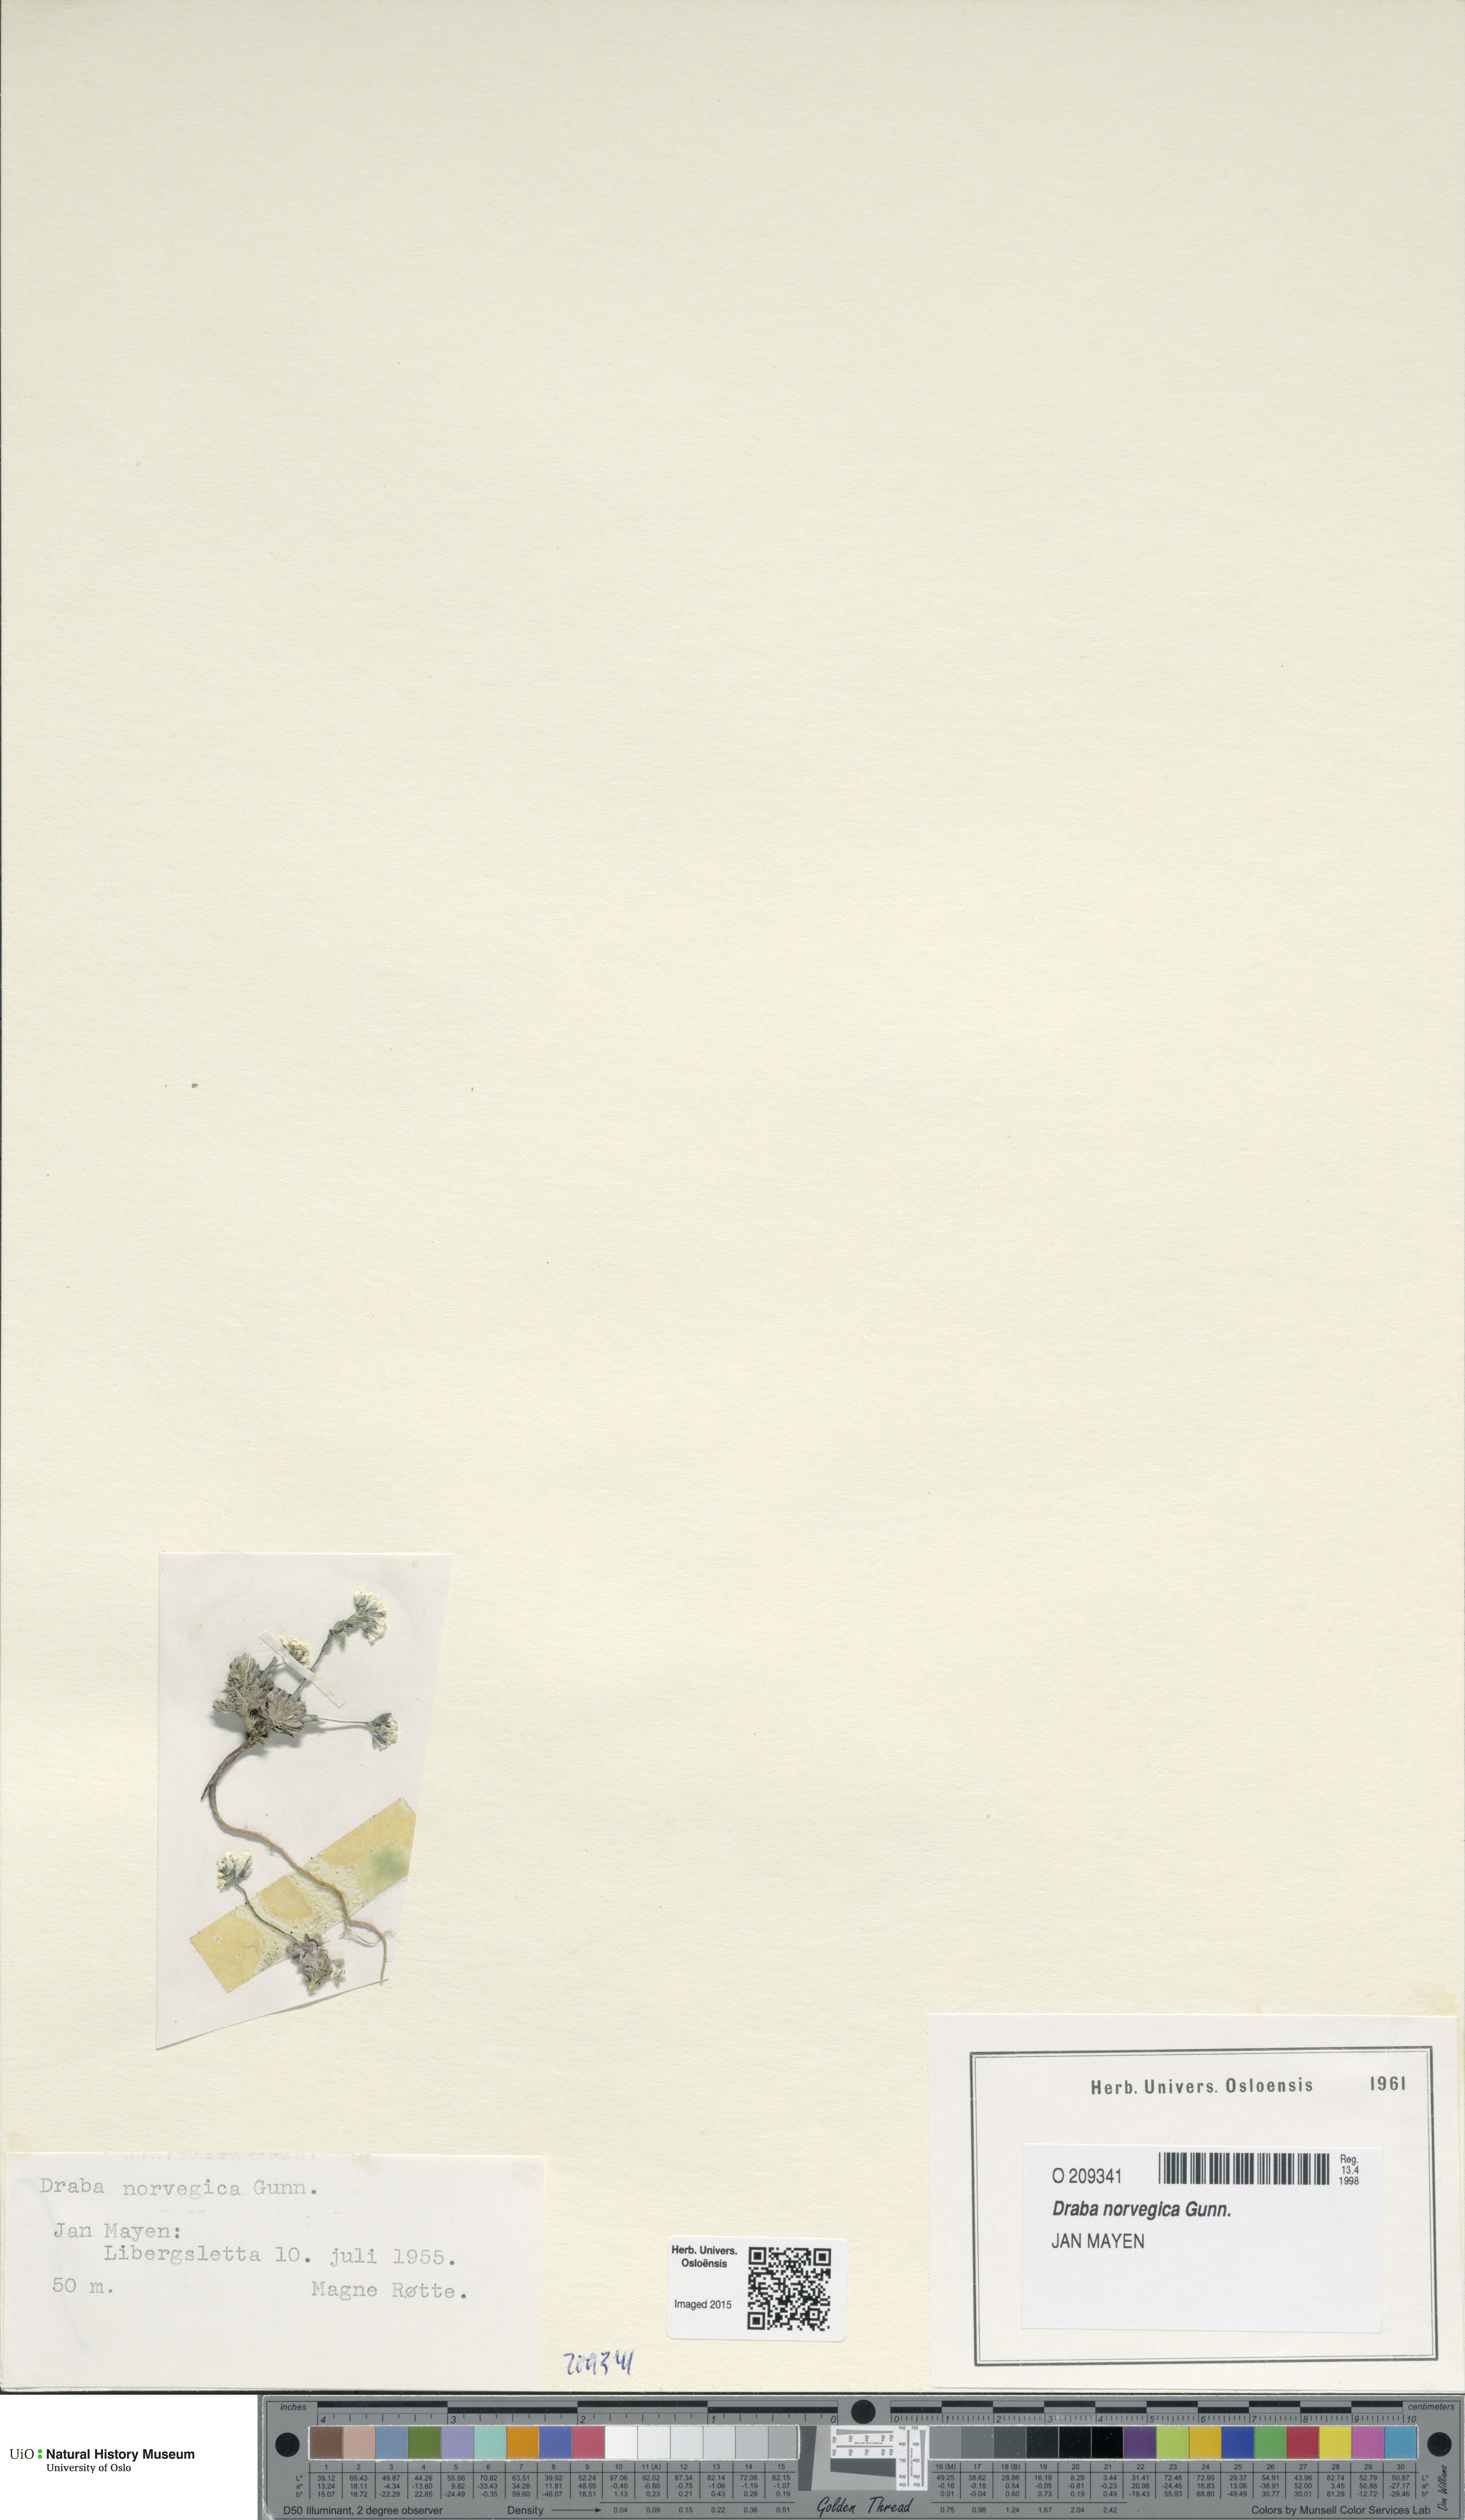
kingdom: Plantae
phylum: Tracheophyta
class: Magnoliopsida
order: Brassicales
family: Brassicaceae
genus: Draba
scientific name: Draba norvegica
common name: Rock whitlowgrass
